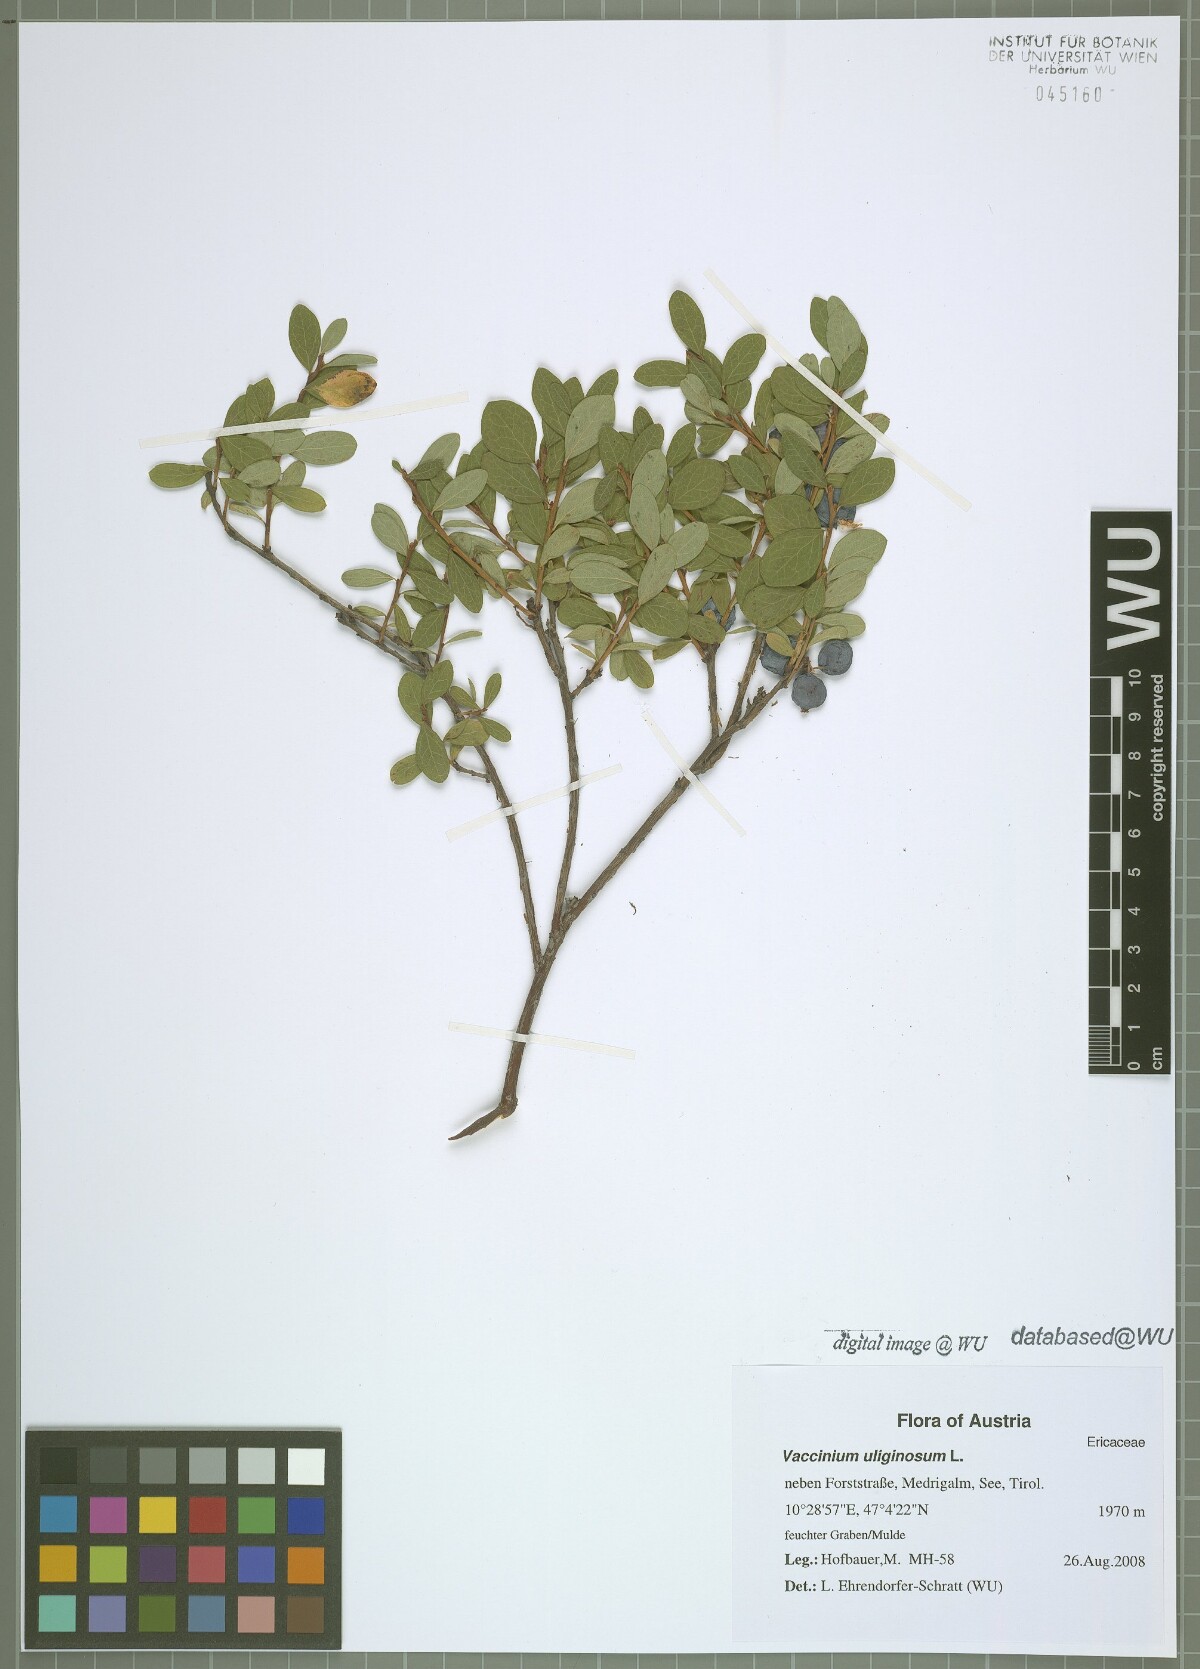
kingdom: Plantae
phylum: Tracheophyta
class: Magnoliopsida
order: Ericales
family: Ericaceae
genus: Vaccinium
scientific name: Vaccinium uliginosum
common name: Bog bilberry
